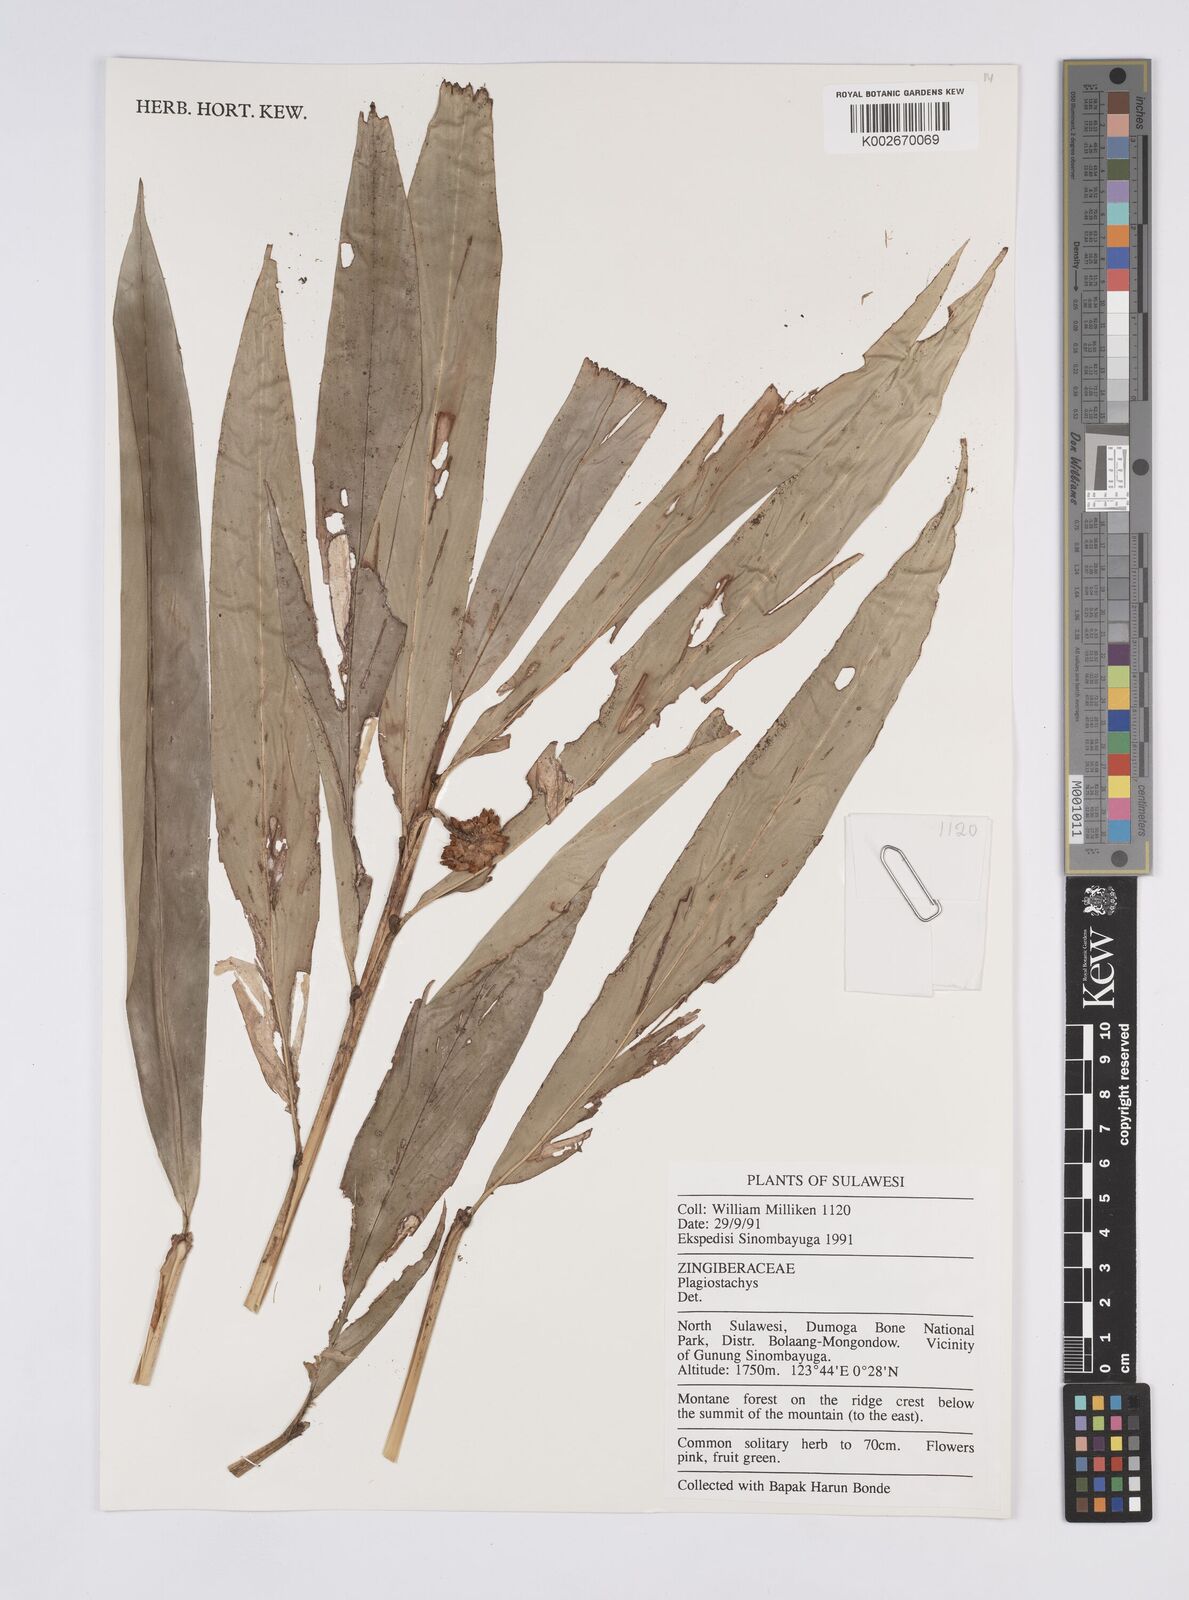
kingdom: Plantae
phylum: Tracheophyta
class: Liliopsida
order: Zingiberales
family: Zingiberaceae
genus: Plagiostachys
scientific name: Plagiostachys
